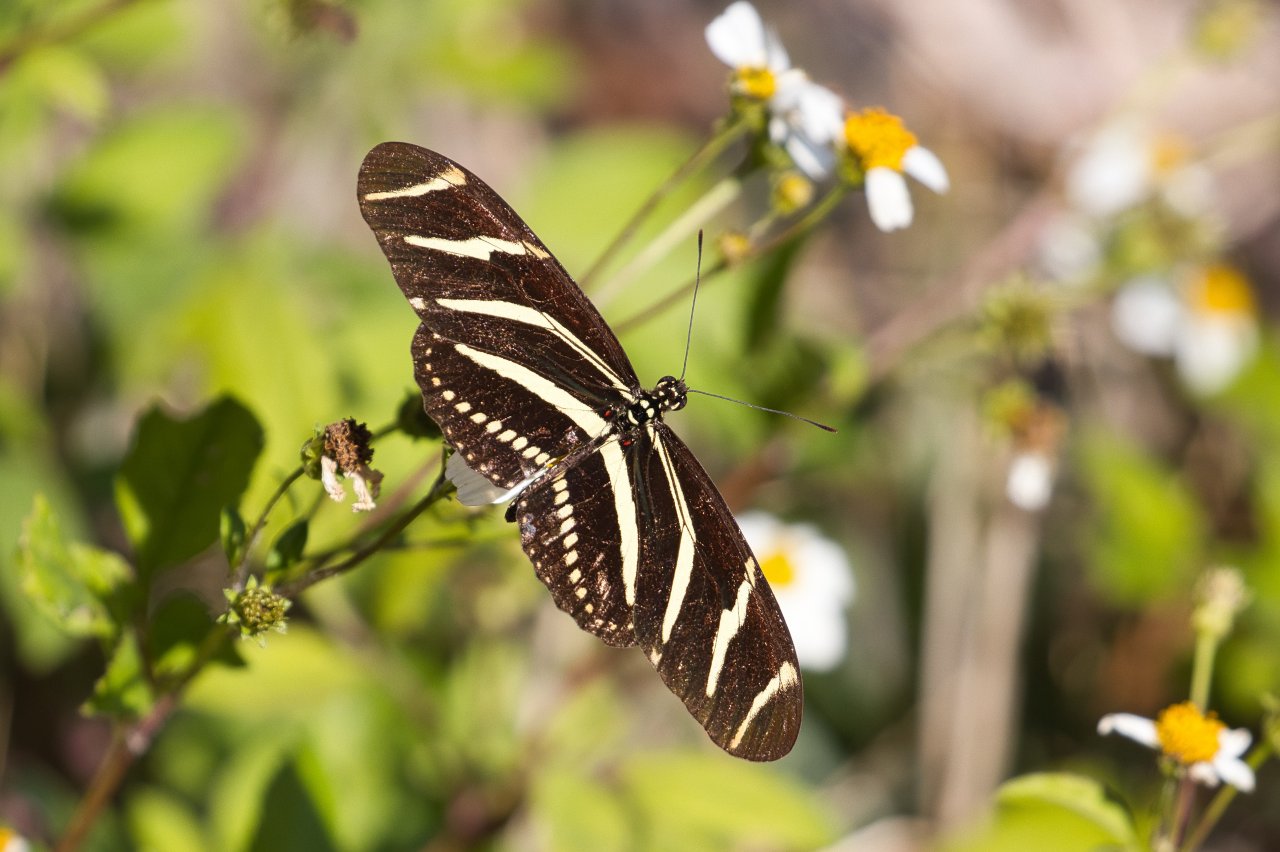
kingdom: Animalia
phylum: Arthropoda
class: Insecta
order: Lepidoptera
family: Nymphalidae
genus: Heliconius
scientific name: Heliconius charithonia
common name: Zebra Longwing
